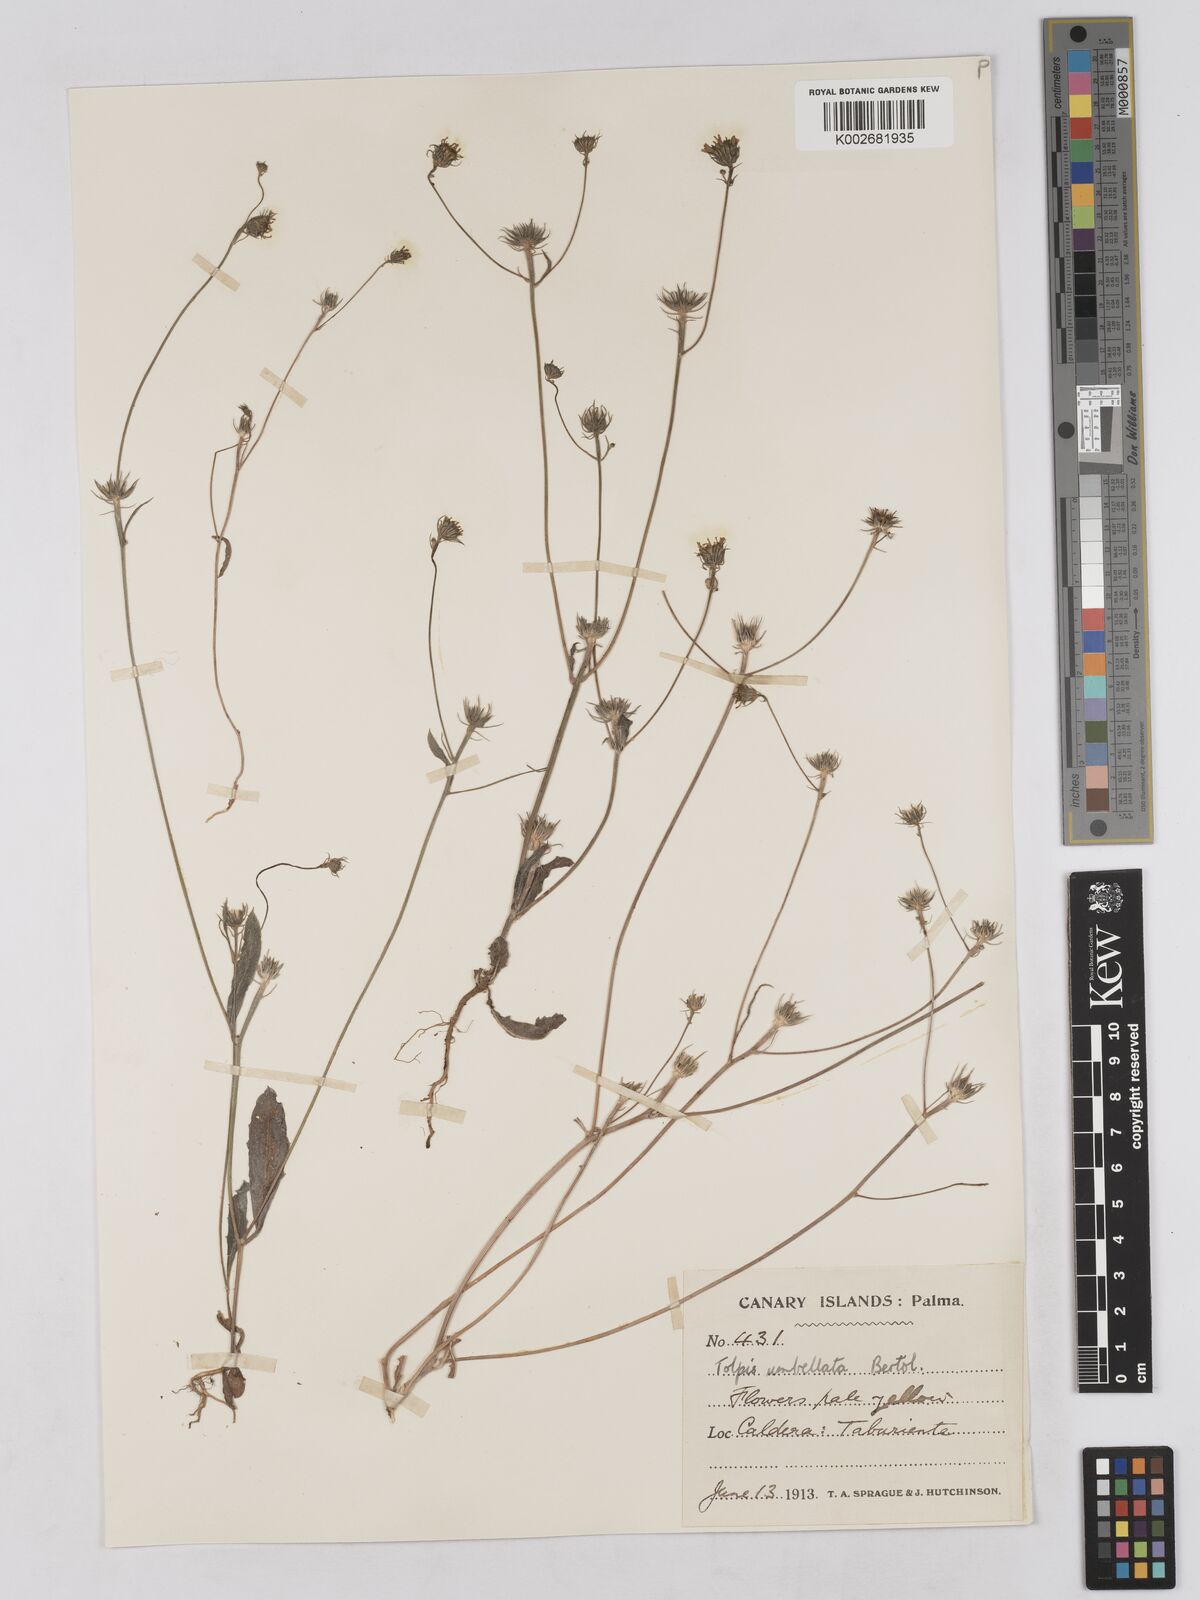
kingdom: Plantae
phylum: Tracheophyta
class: Magnoliopsida
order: Asterales
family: Asteraceae
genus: Tolpis
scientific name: Tolpis umbellata
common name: Yellow hawkweed
